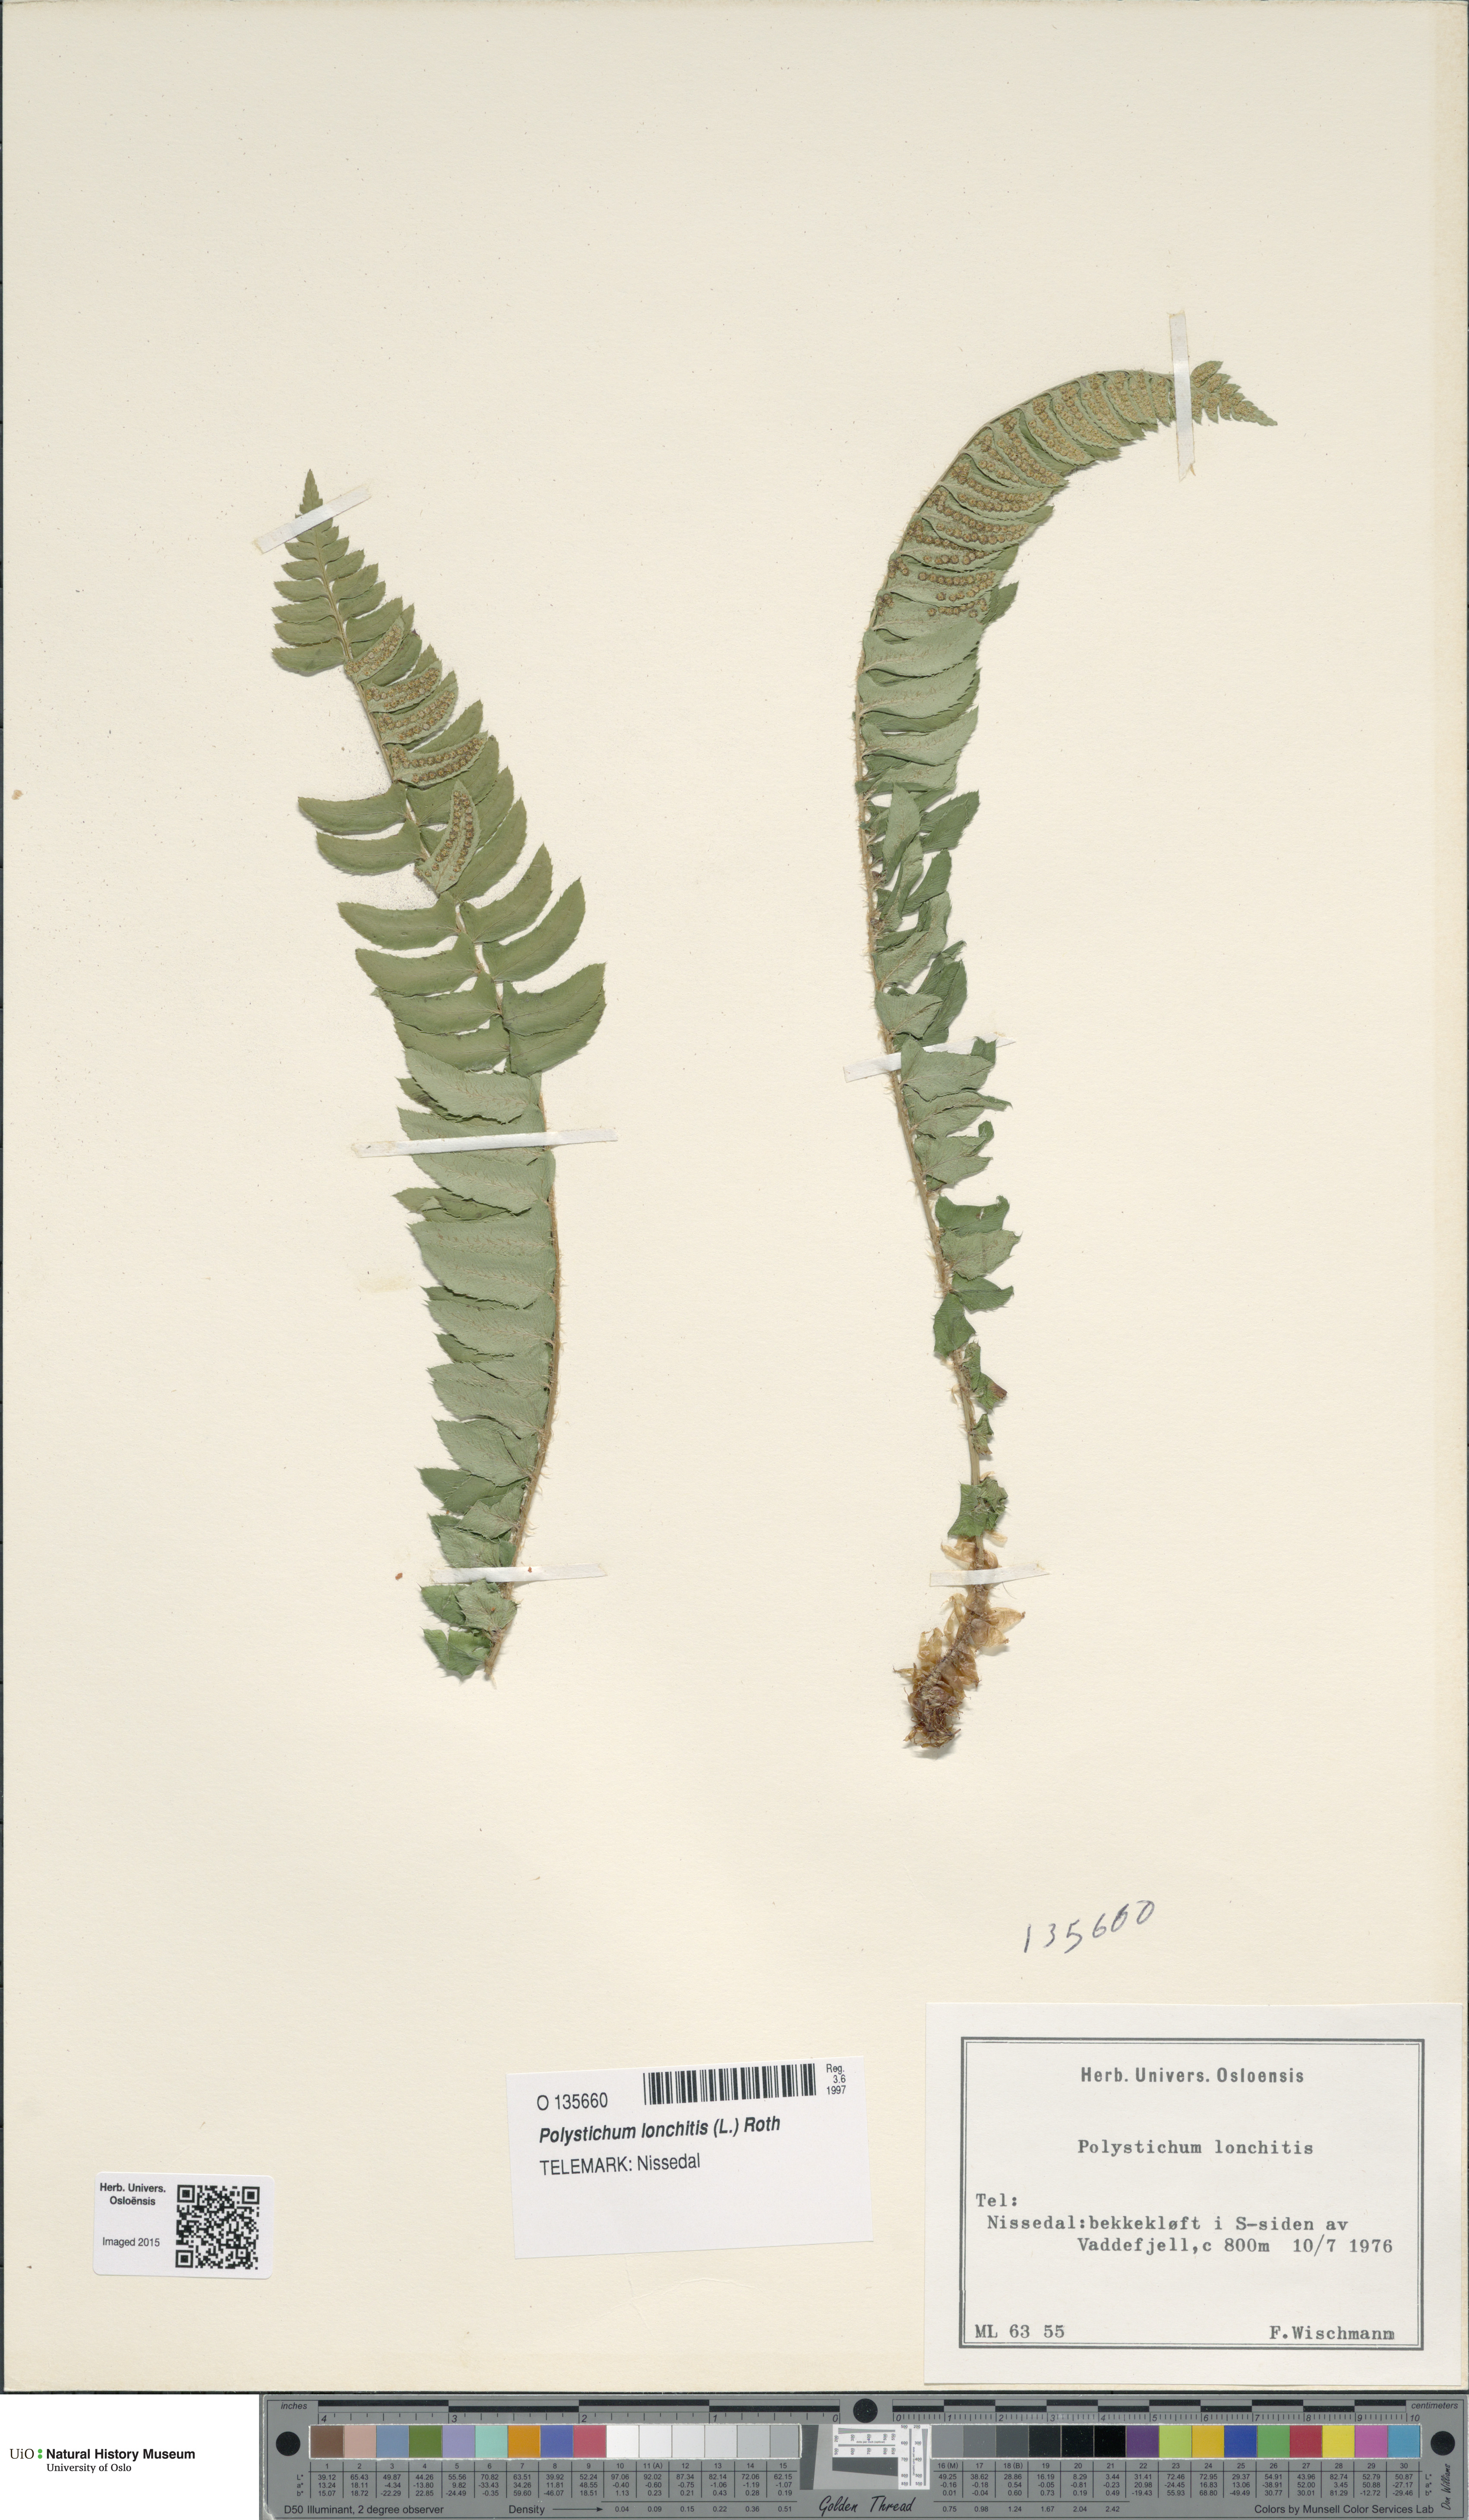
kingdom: Plantae
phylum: Tracheophyta
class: Polypodiopsida
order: Polypodiales
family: Dryopteridaceae
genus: Polystichum
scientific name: Polystichum lonchitis
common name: Holly fern
